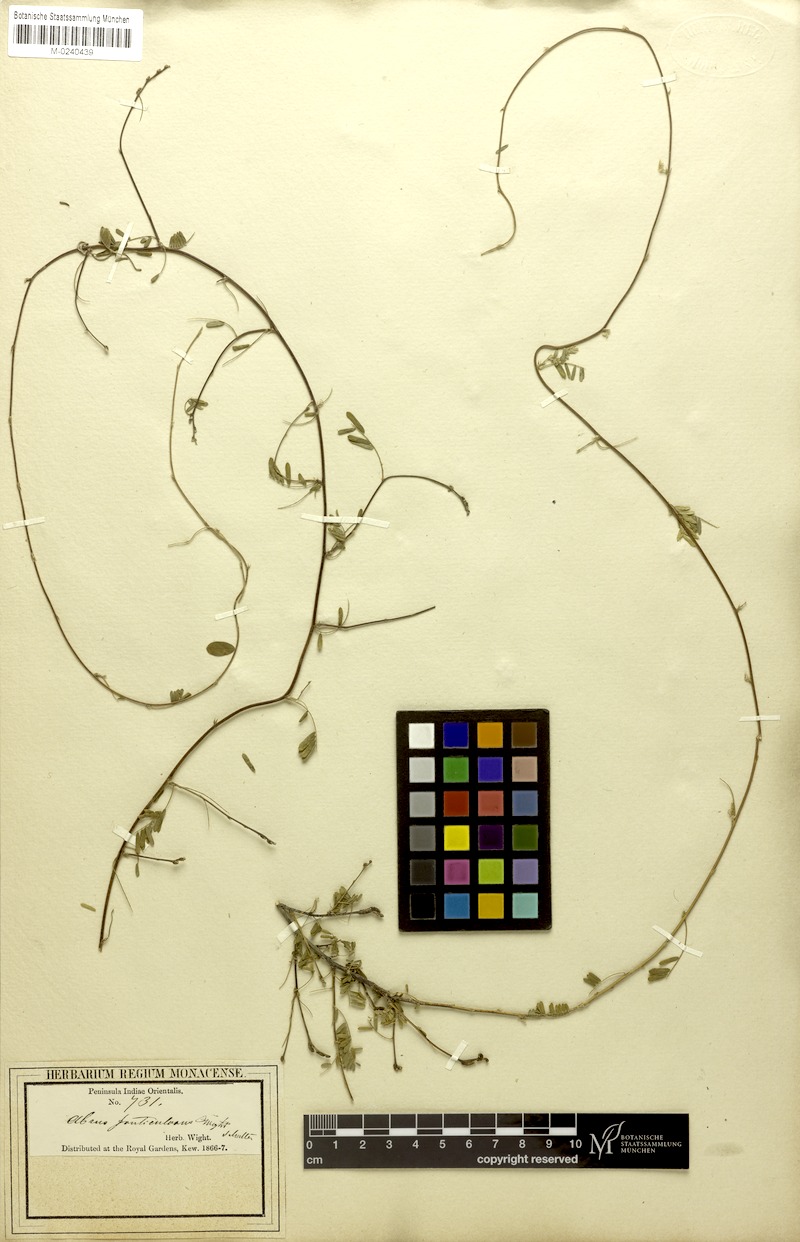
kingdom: Plantae
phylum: Tracheophyta
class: Magnoliopsida
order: Fabales
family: Fabaceae
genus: Abrus
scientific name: Abrus fruticulosus
